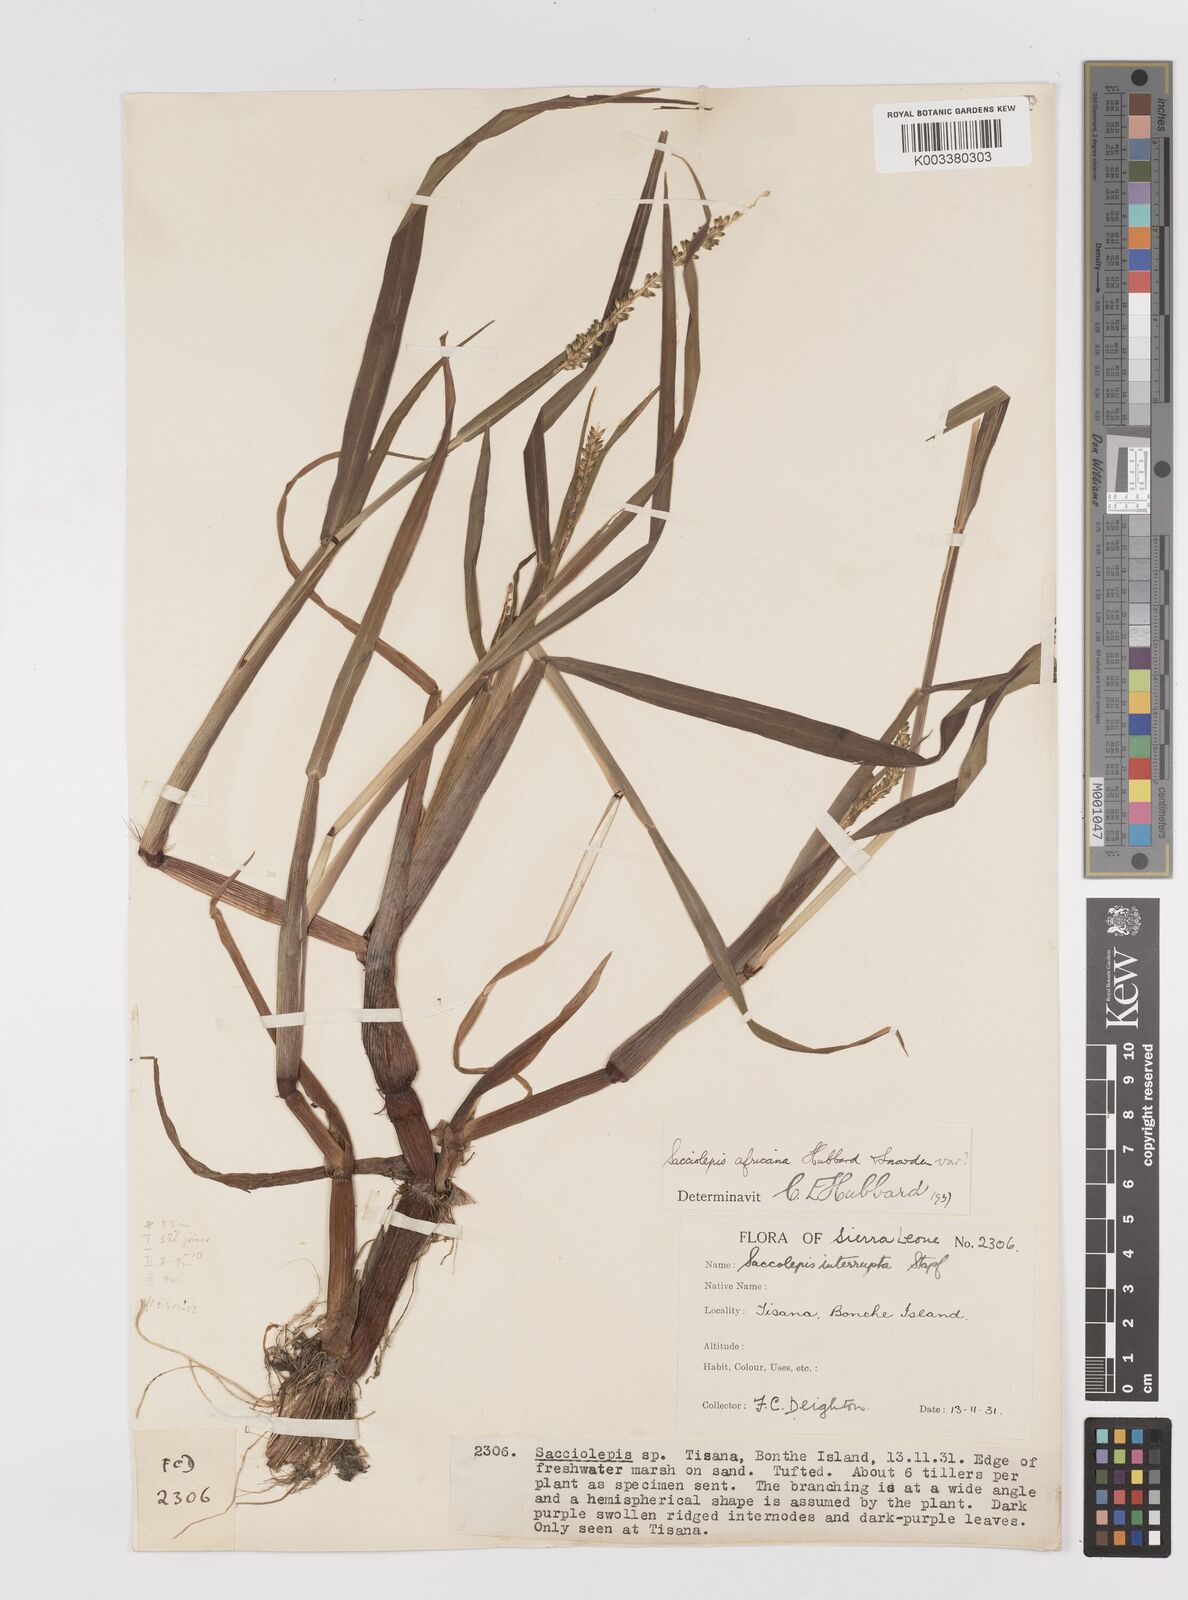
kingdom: Plantae
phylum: Tracheophyta
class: Liliopsida
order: Poales
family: Poaceae
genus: Sacciolepis
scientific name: Sacciolepis africana
